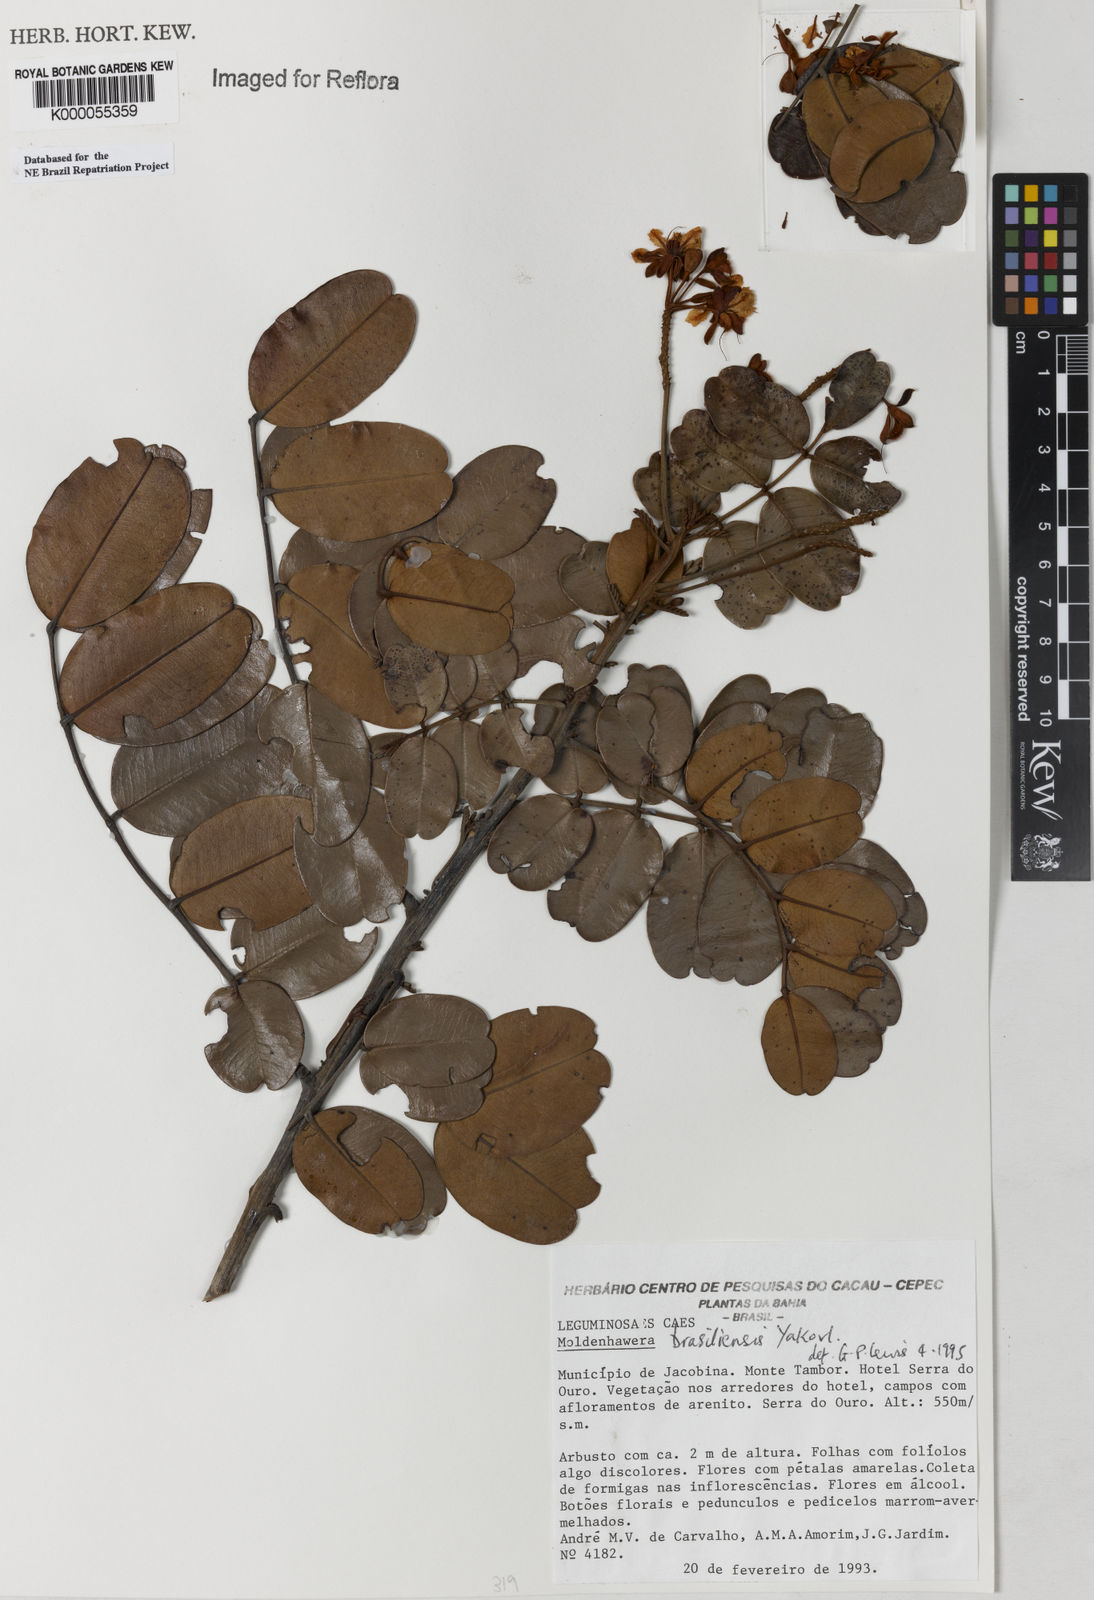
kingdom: Plantae
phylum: Tracheophyta
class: Magnoliopsida
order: Fabales
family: Fabaceae
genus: Moldenhawera
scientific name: Moldenhawera brasiliensis
